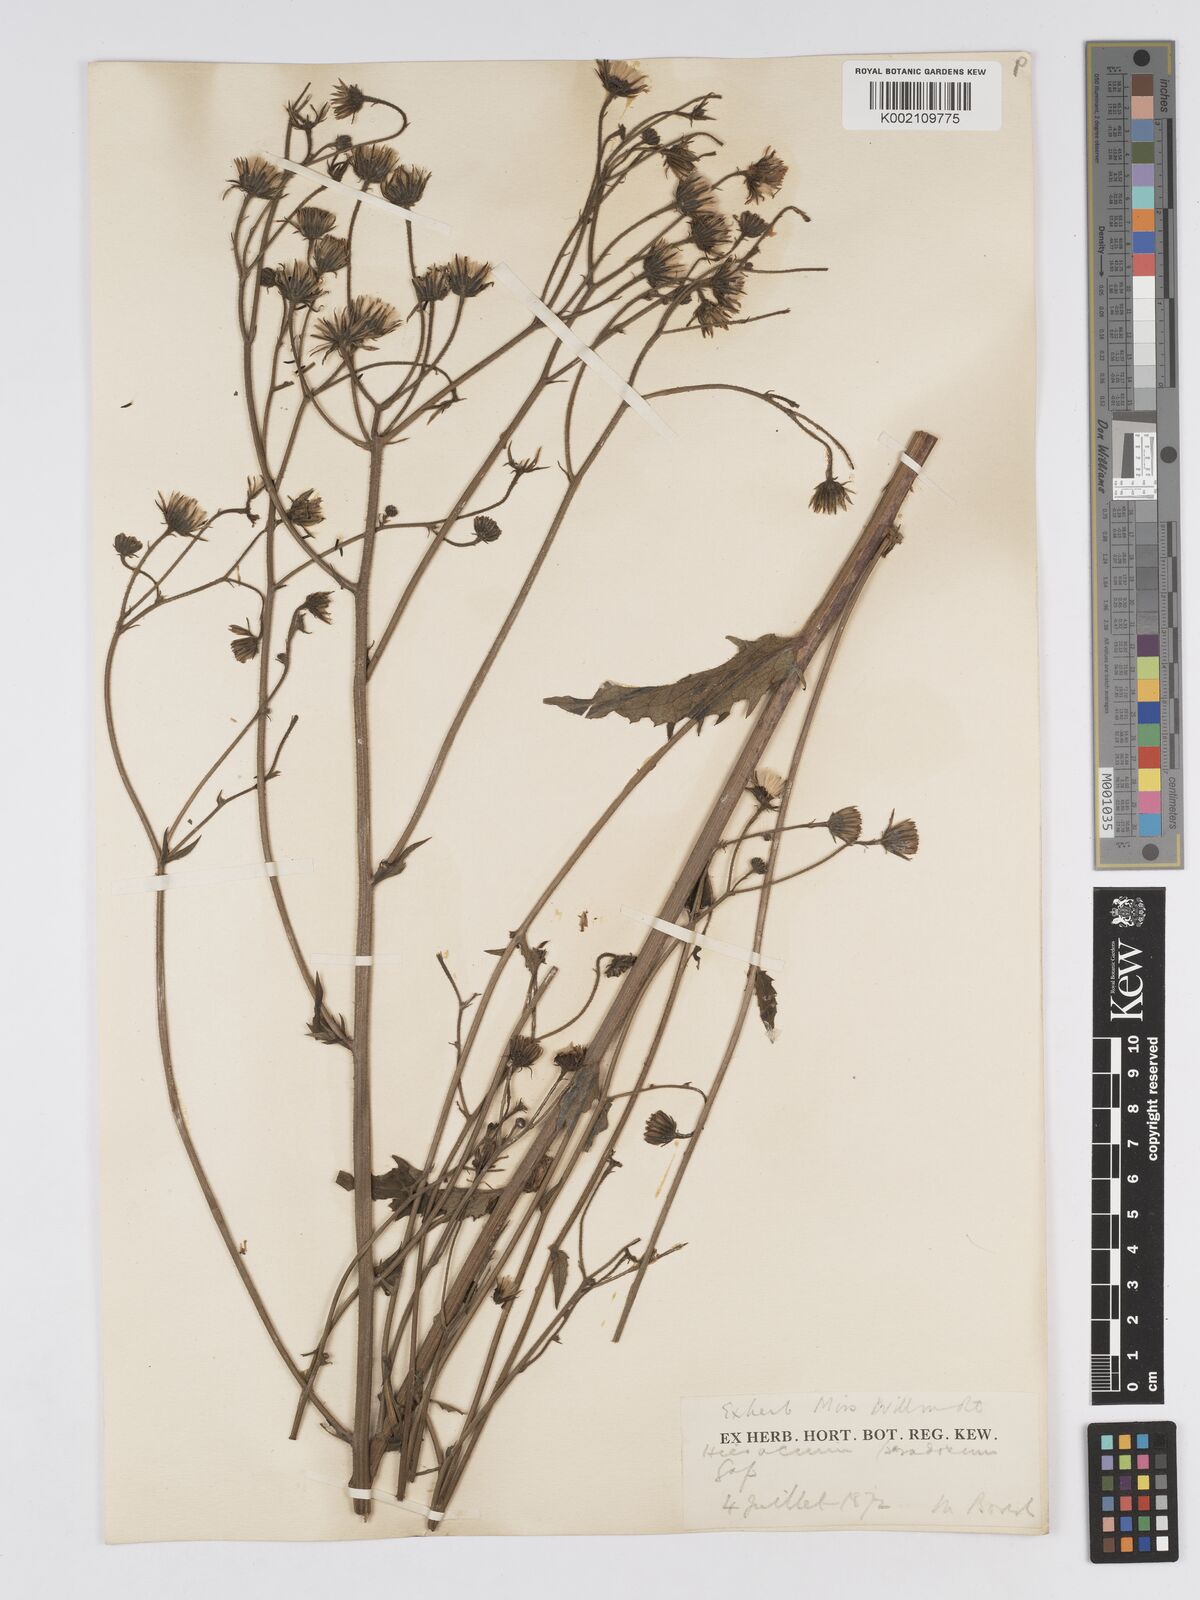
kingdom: Plantae
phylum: Tracheophyta
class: Magnoliopsida
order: Asterales
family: Asteraceae
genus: Hieracium
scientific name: Hieracium australe
